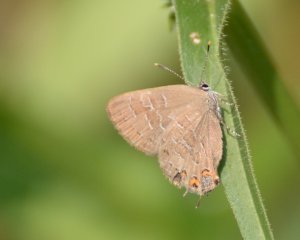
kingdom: Animalia
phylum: Arthropoda
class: Insecta
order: Lepidoptera
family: Lycaenidae
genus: Satyrium
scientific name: Satyrium liparops
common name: Striped Hairstreak
